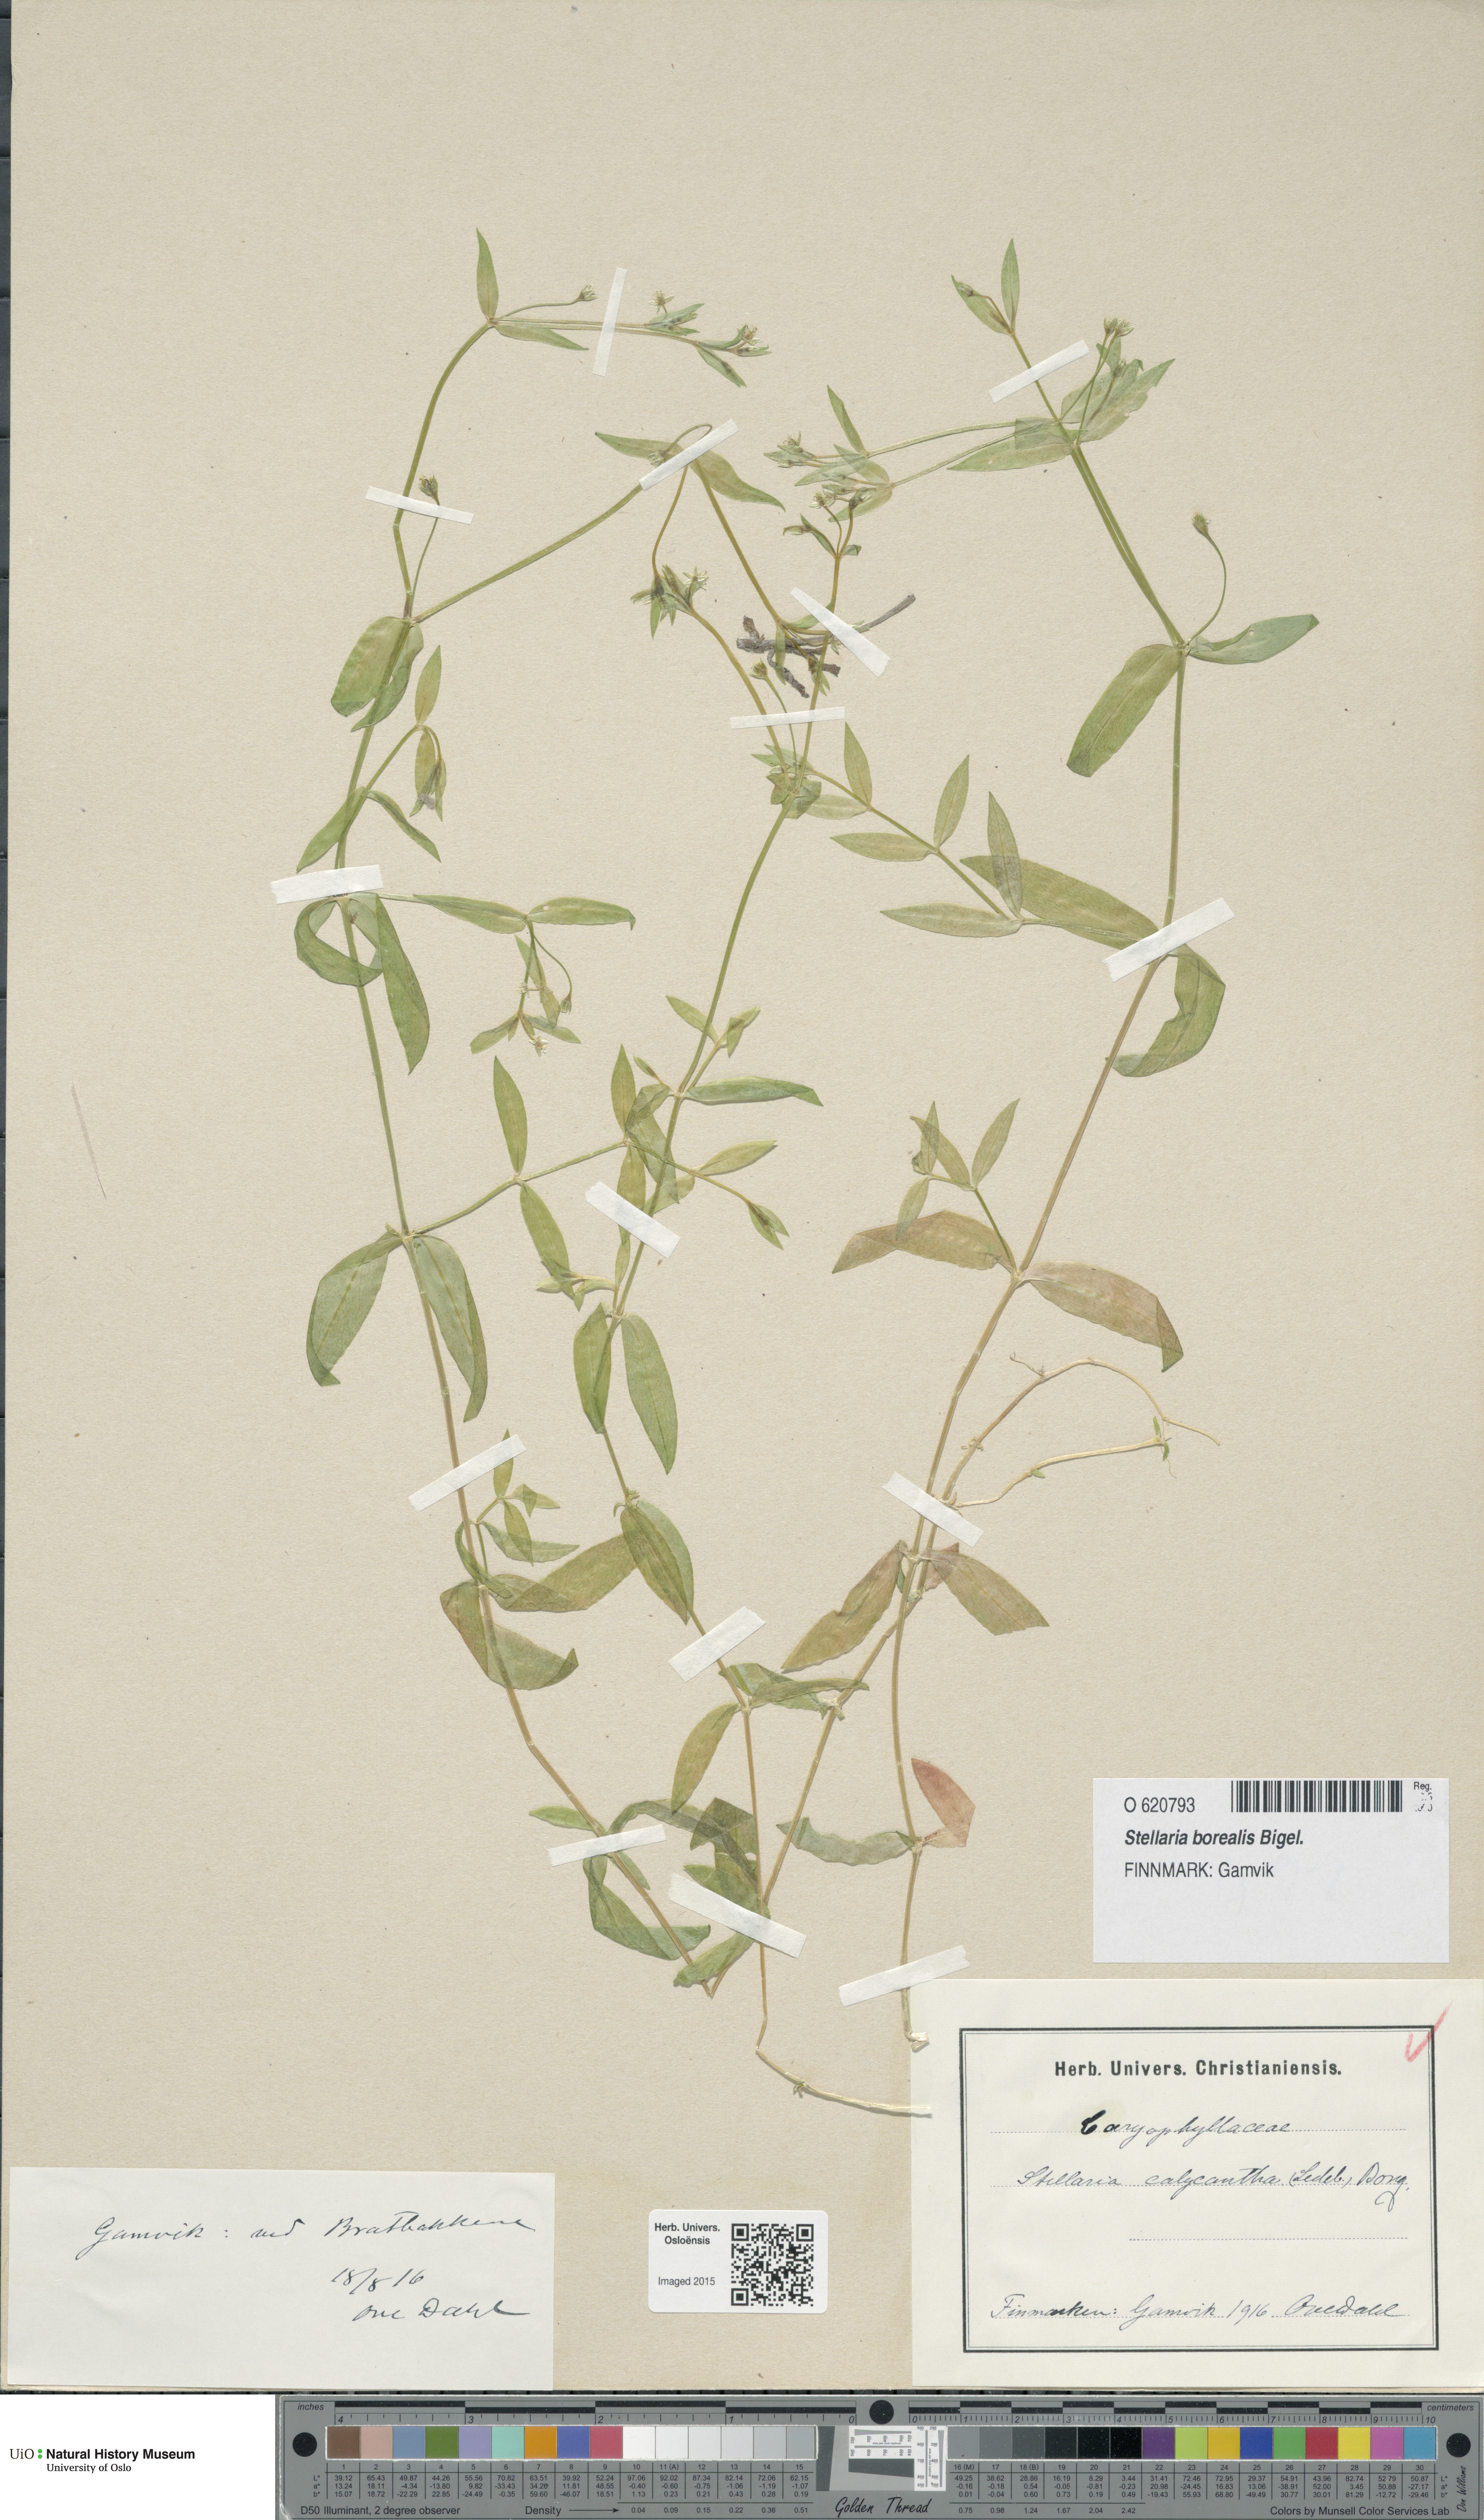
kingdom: Plantae
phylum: Tracheophyta
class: Magnoliopsida
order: Caryophyllales
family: Caryophyllaceae
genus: Stellaria
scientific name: Stellaria borealis
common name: Boreal starwort
